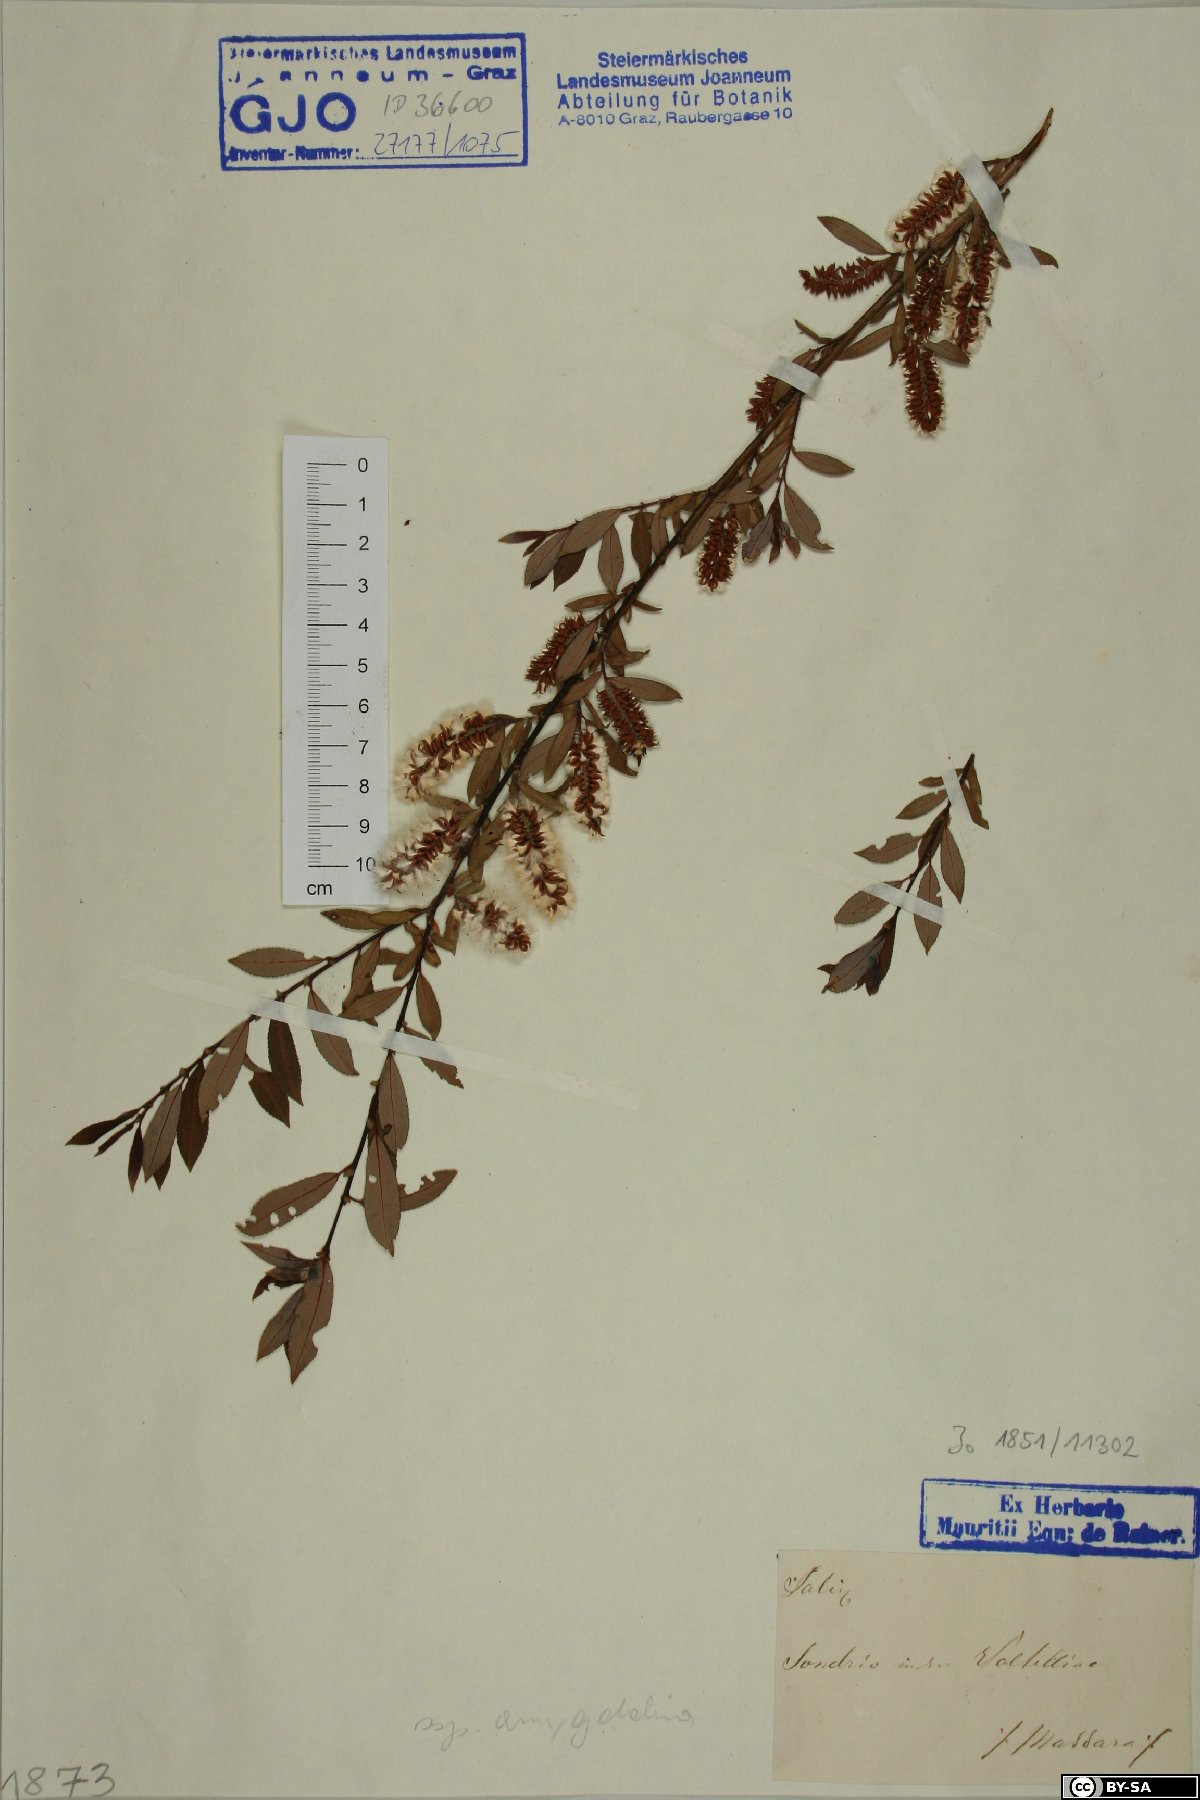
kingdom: Plantae
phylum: Tracheophyta
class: Magnoliopsida
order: Malpighiales
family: Salicaceae
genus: Salix
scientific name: Salix
